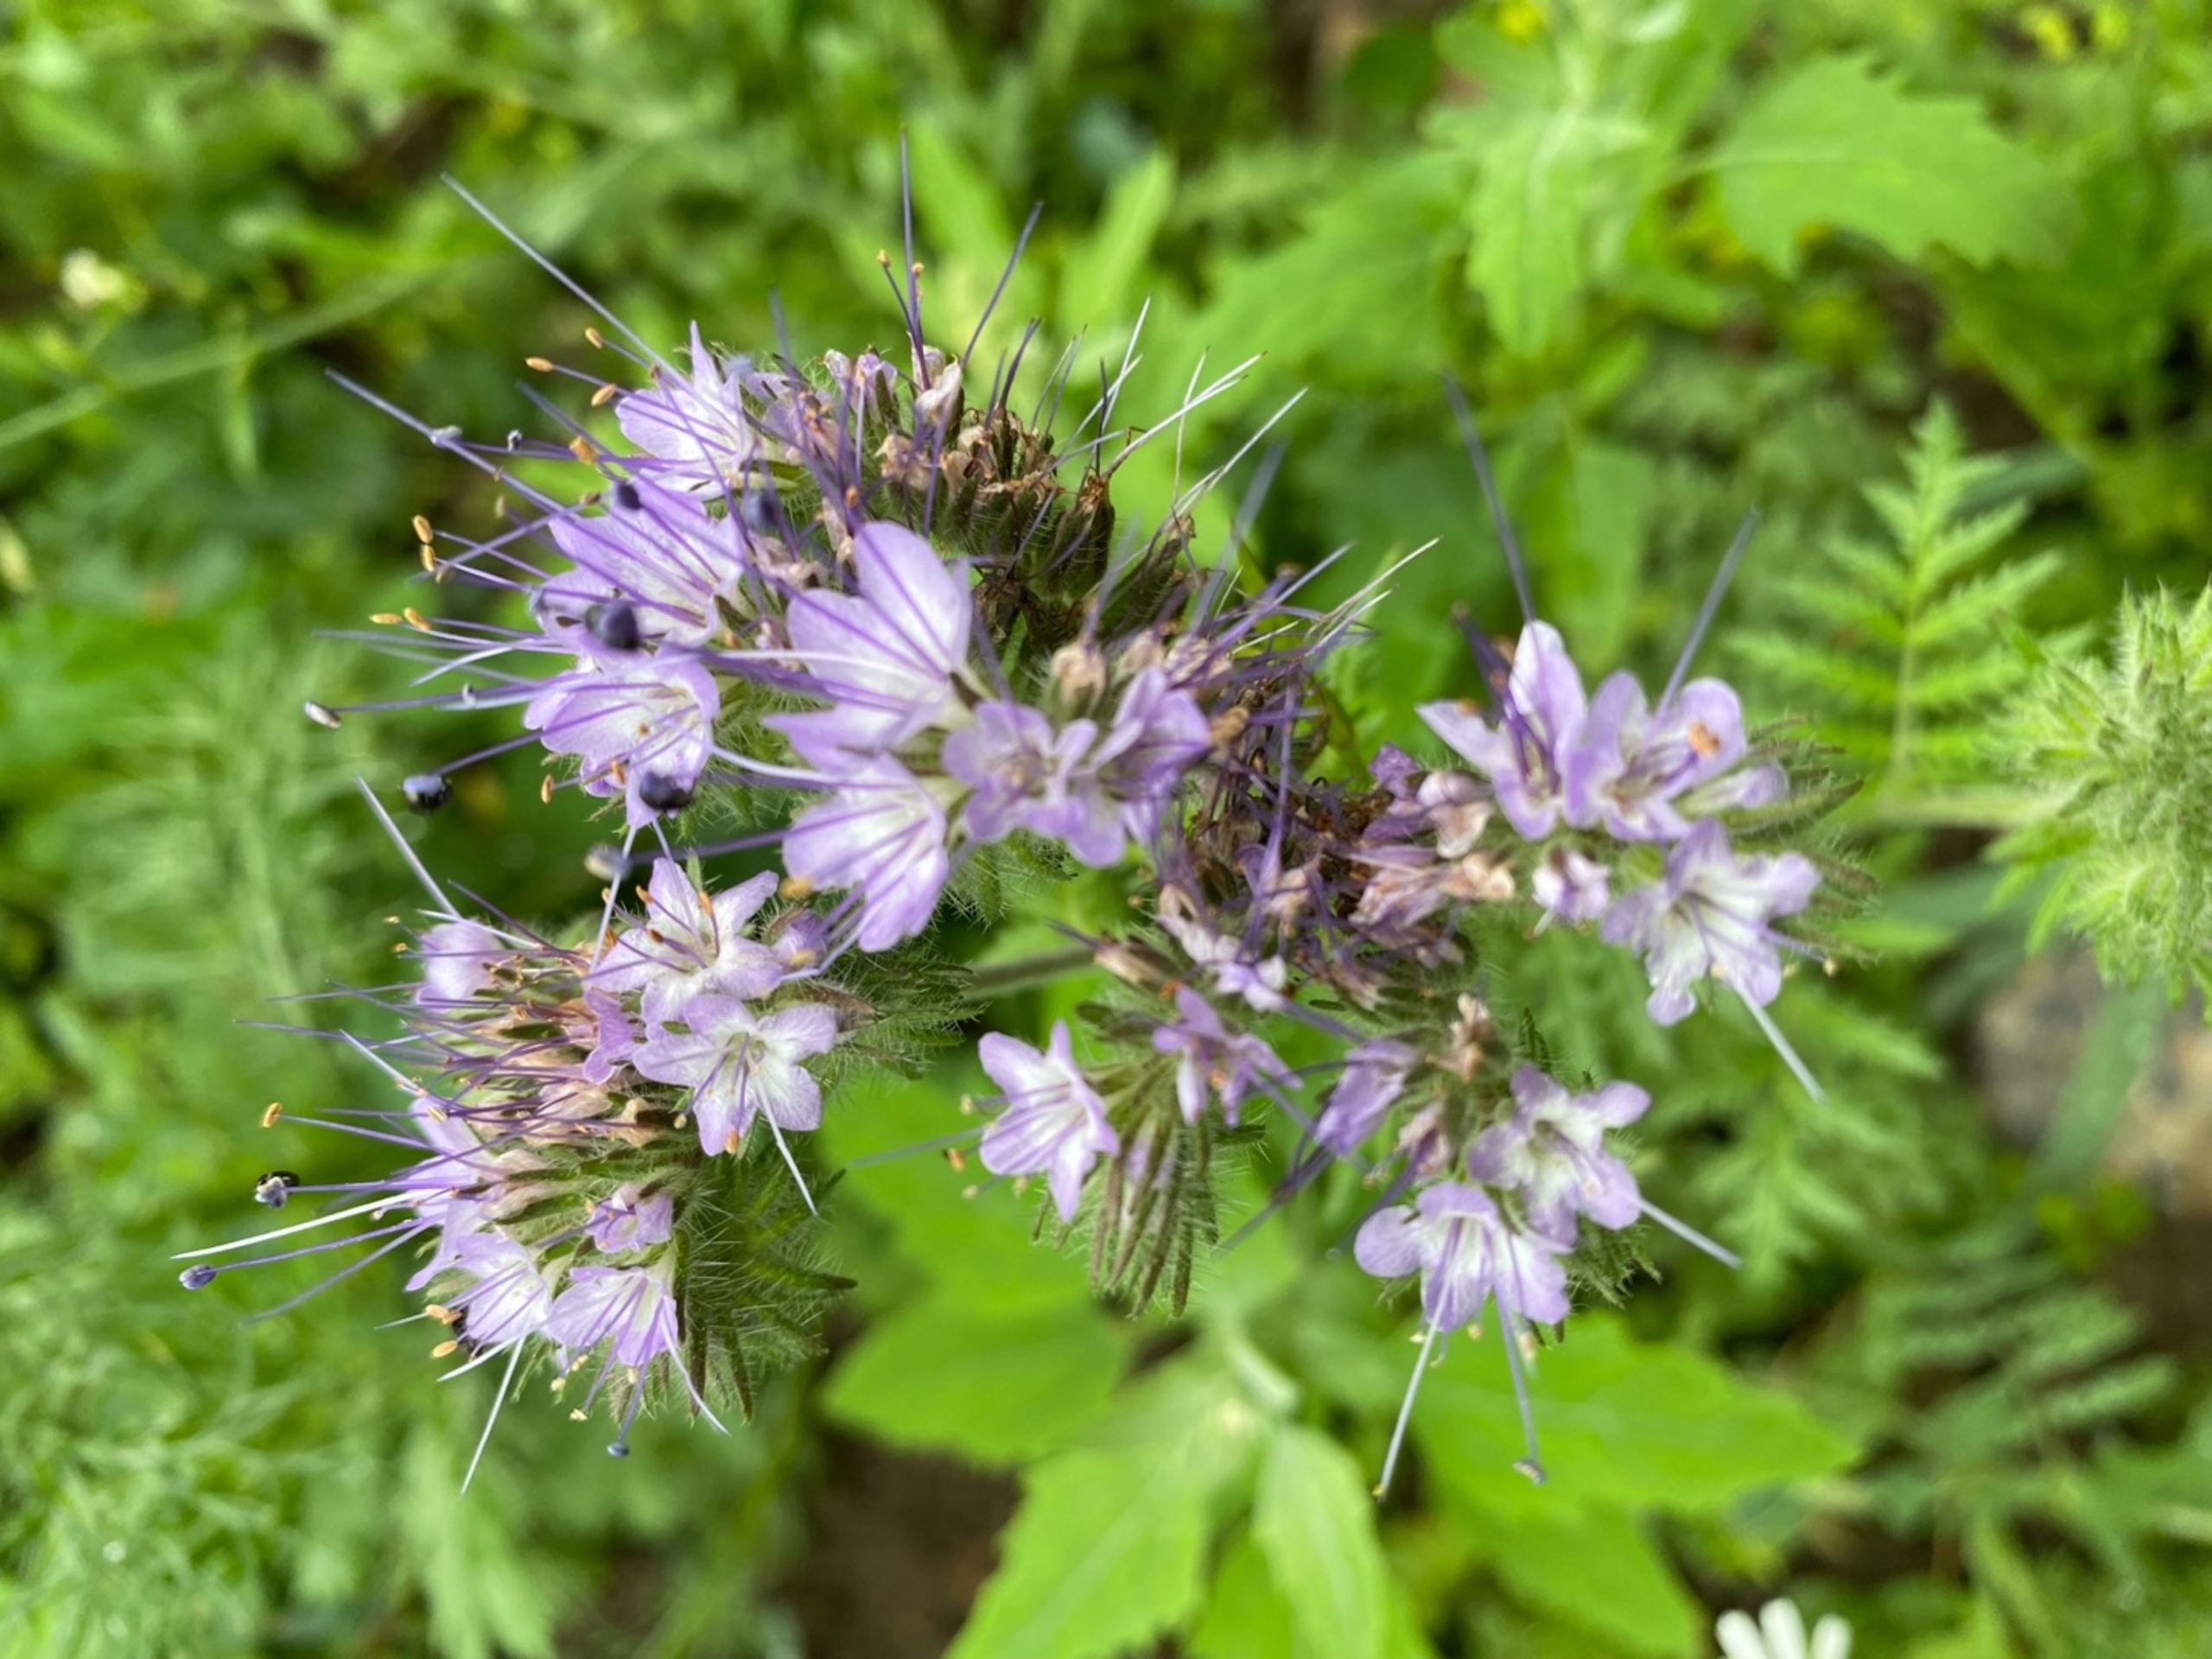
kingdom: Plantae
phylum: Tracheophyta
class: Magnoliopsida
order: Boraginales
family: Hydrophyllaceae
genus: Phacelia
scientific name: Phacelia tanacetifolia
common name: Honningurt
